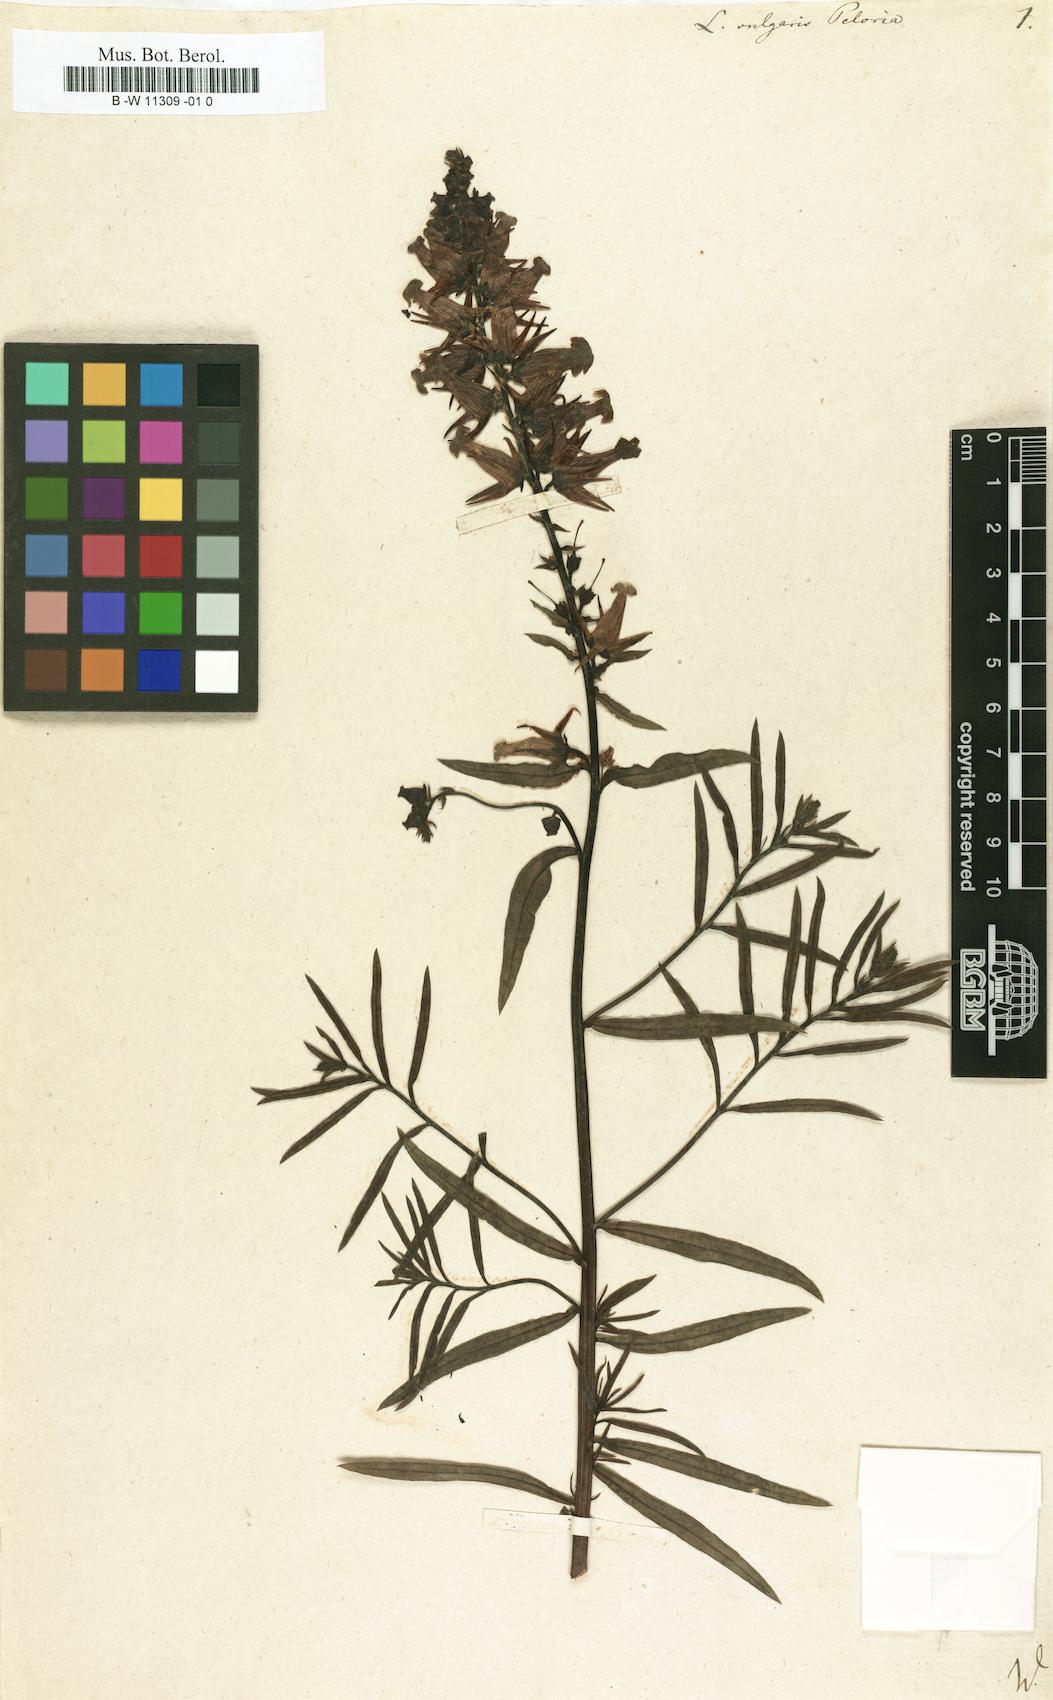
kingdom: Plantae
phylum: Tracheophyta
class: Magnoliopsida
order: Lamiales
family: Plantaginaceae
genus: Linaria
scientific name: Linaria vulgaris
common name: Butter and eggs
